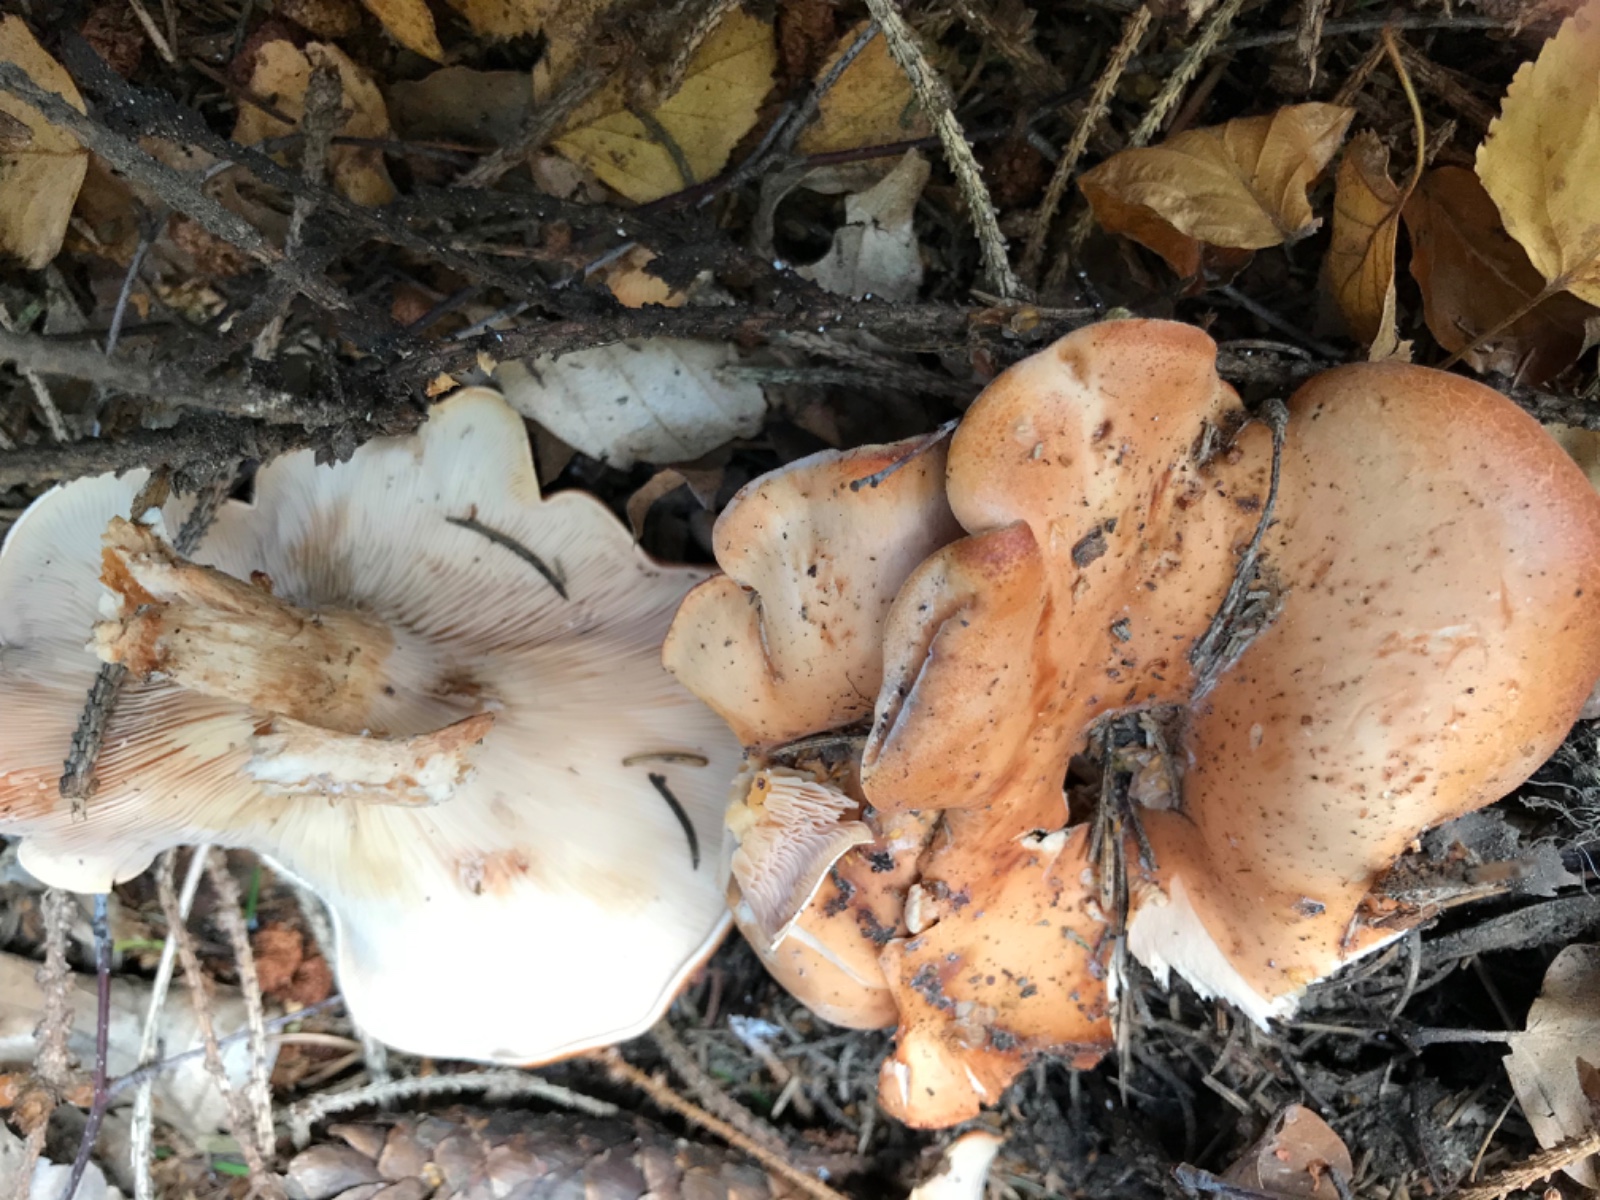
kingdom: Fungi
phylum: Basidiomycota
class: Agaricomycetes
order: Agaricales
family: Tricholomataceae
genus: Paralepista
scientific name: Paralepista flaccida
